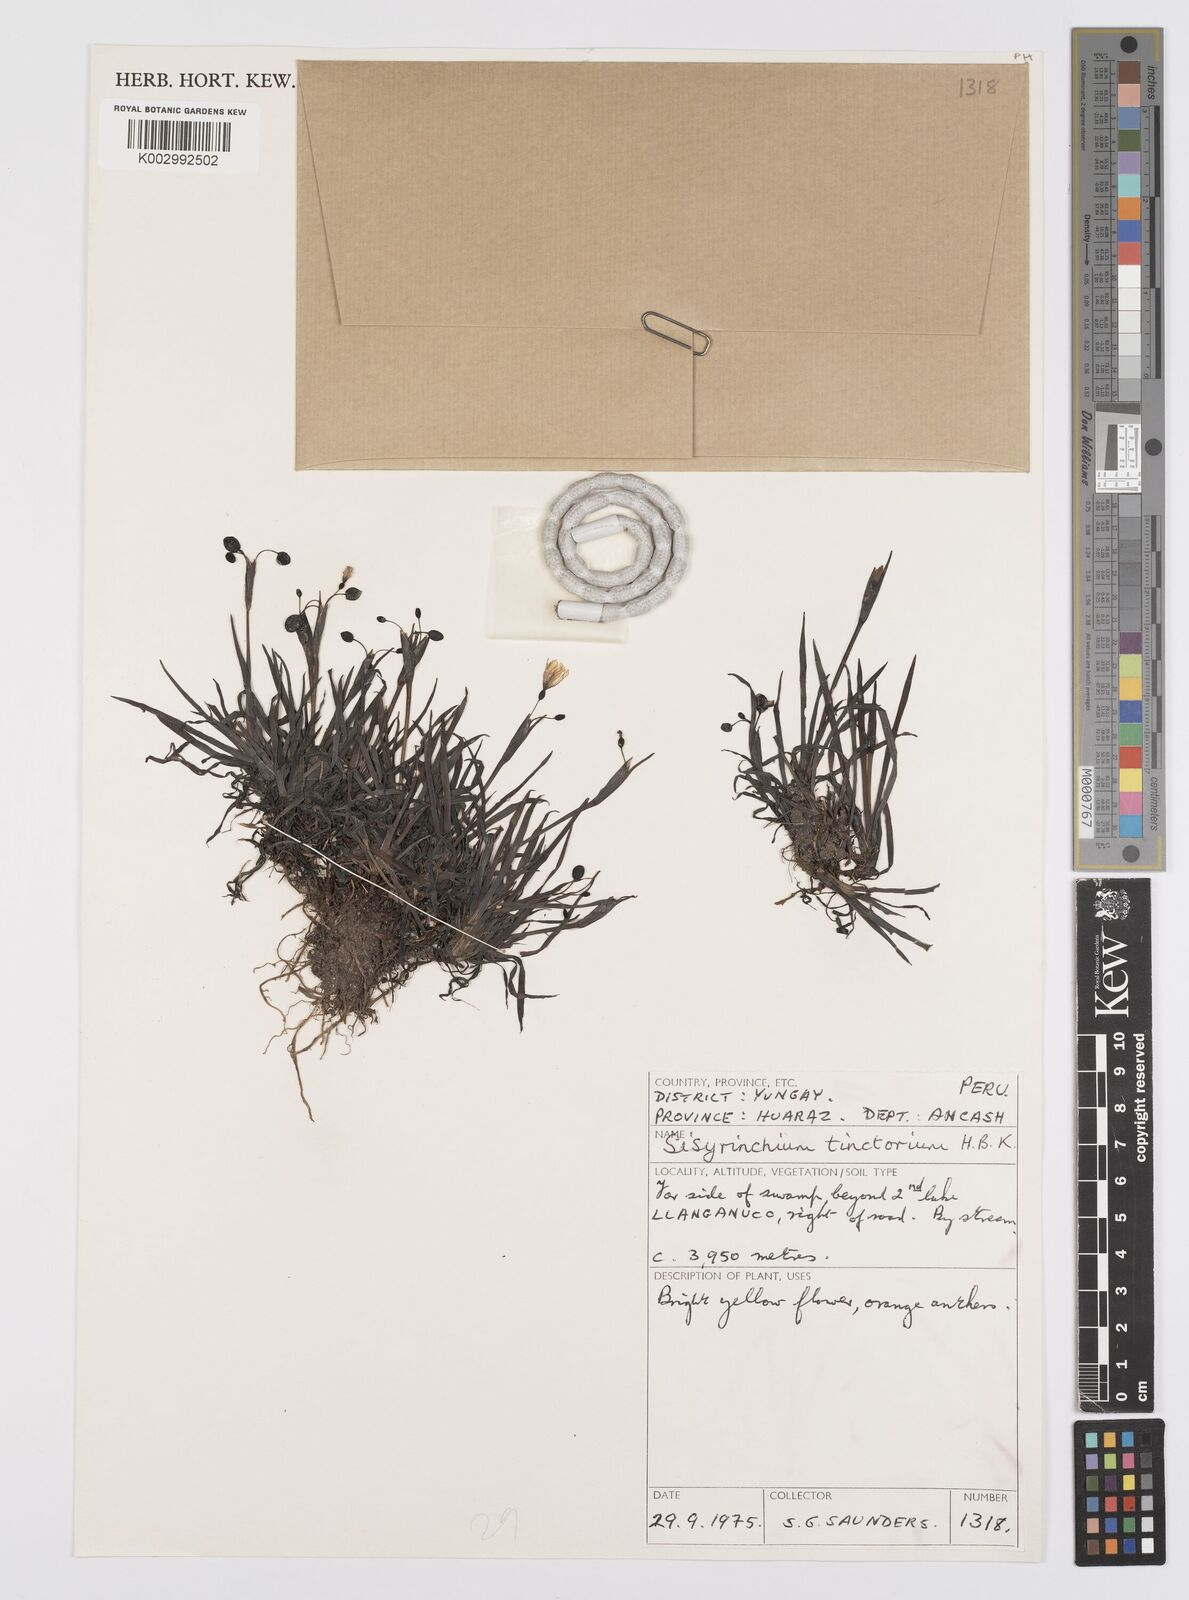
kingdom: Plantae
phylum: Tracheophyta
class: Liliopsida
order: Asparagales
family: Iridaceae
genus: Sisyrinchium
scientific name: Sisyrinchium tinctorium
